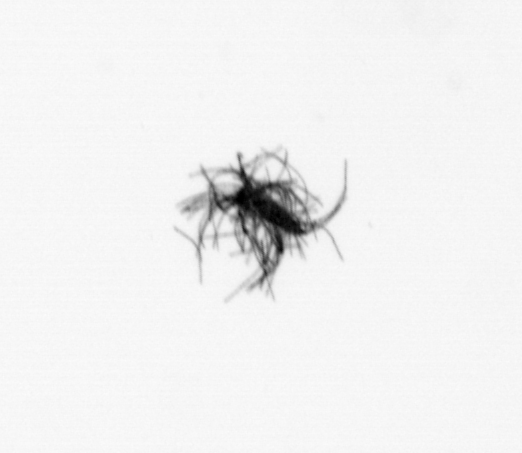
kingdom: Bacteria
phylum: Cyanobacteria
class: Cyanobacteriia
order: Cyanobacteriales
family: Microcoleaceae
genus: Trichodesmium
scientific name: Trichodesmium
